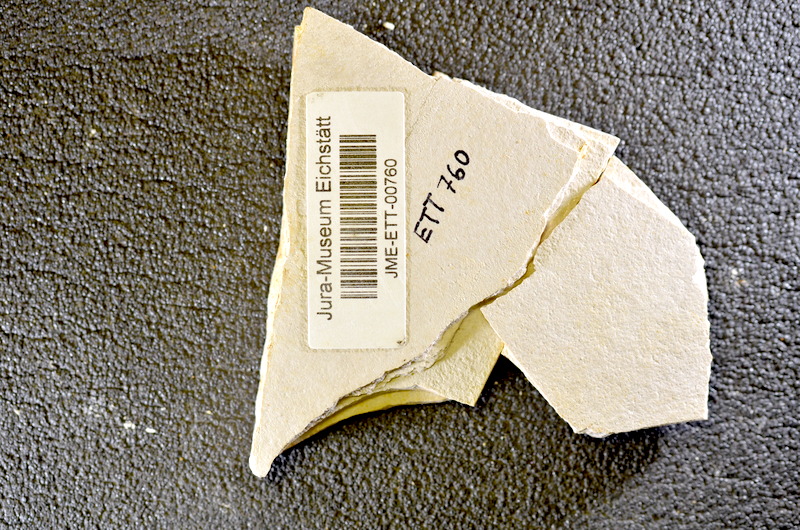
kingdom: Animalia
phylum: Chordata
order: Salmoniformes
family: Orthogonikleithridae
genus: Orthogonikleithrus
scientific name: Orthogonikleithrus hoelli
